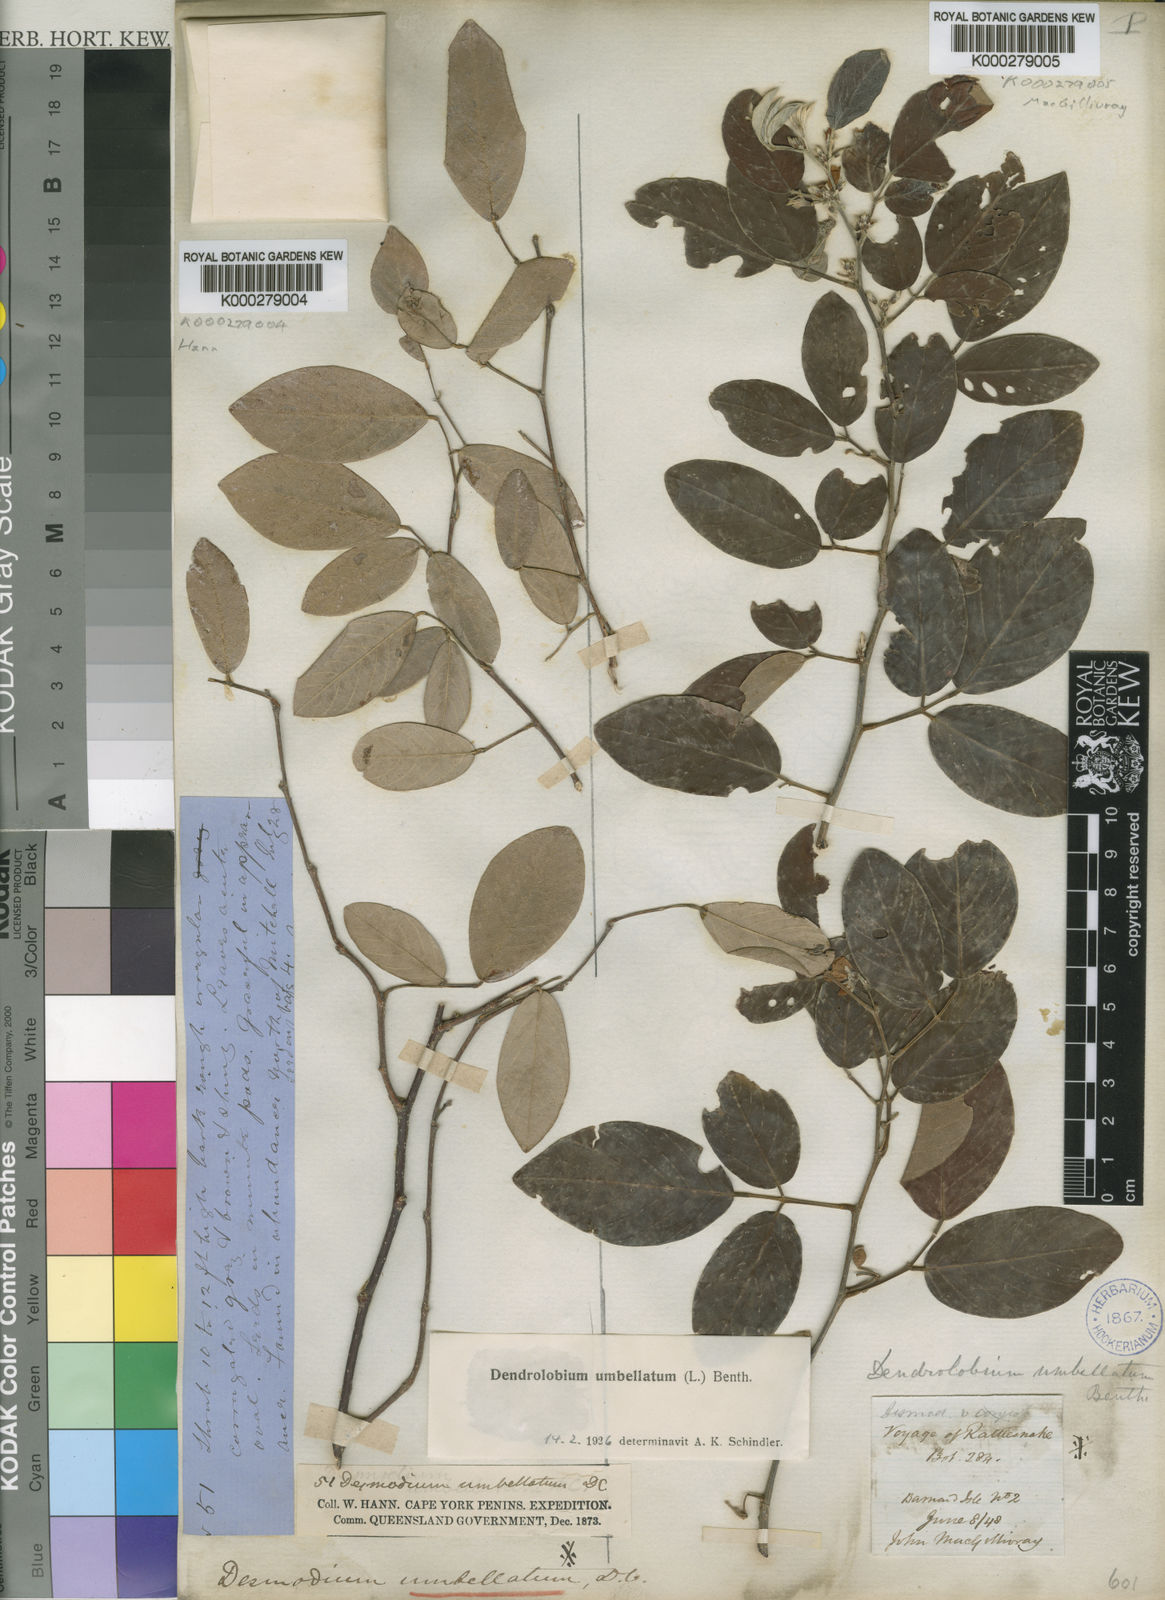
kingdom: Plantae
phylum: Tracheophyta
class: Magnoliopsida
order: Fabales
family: Fabaceae
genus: Dendrolobium
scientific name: Dendrolobium umbellatum
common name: Horsebush
